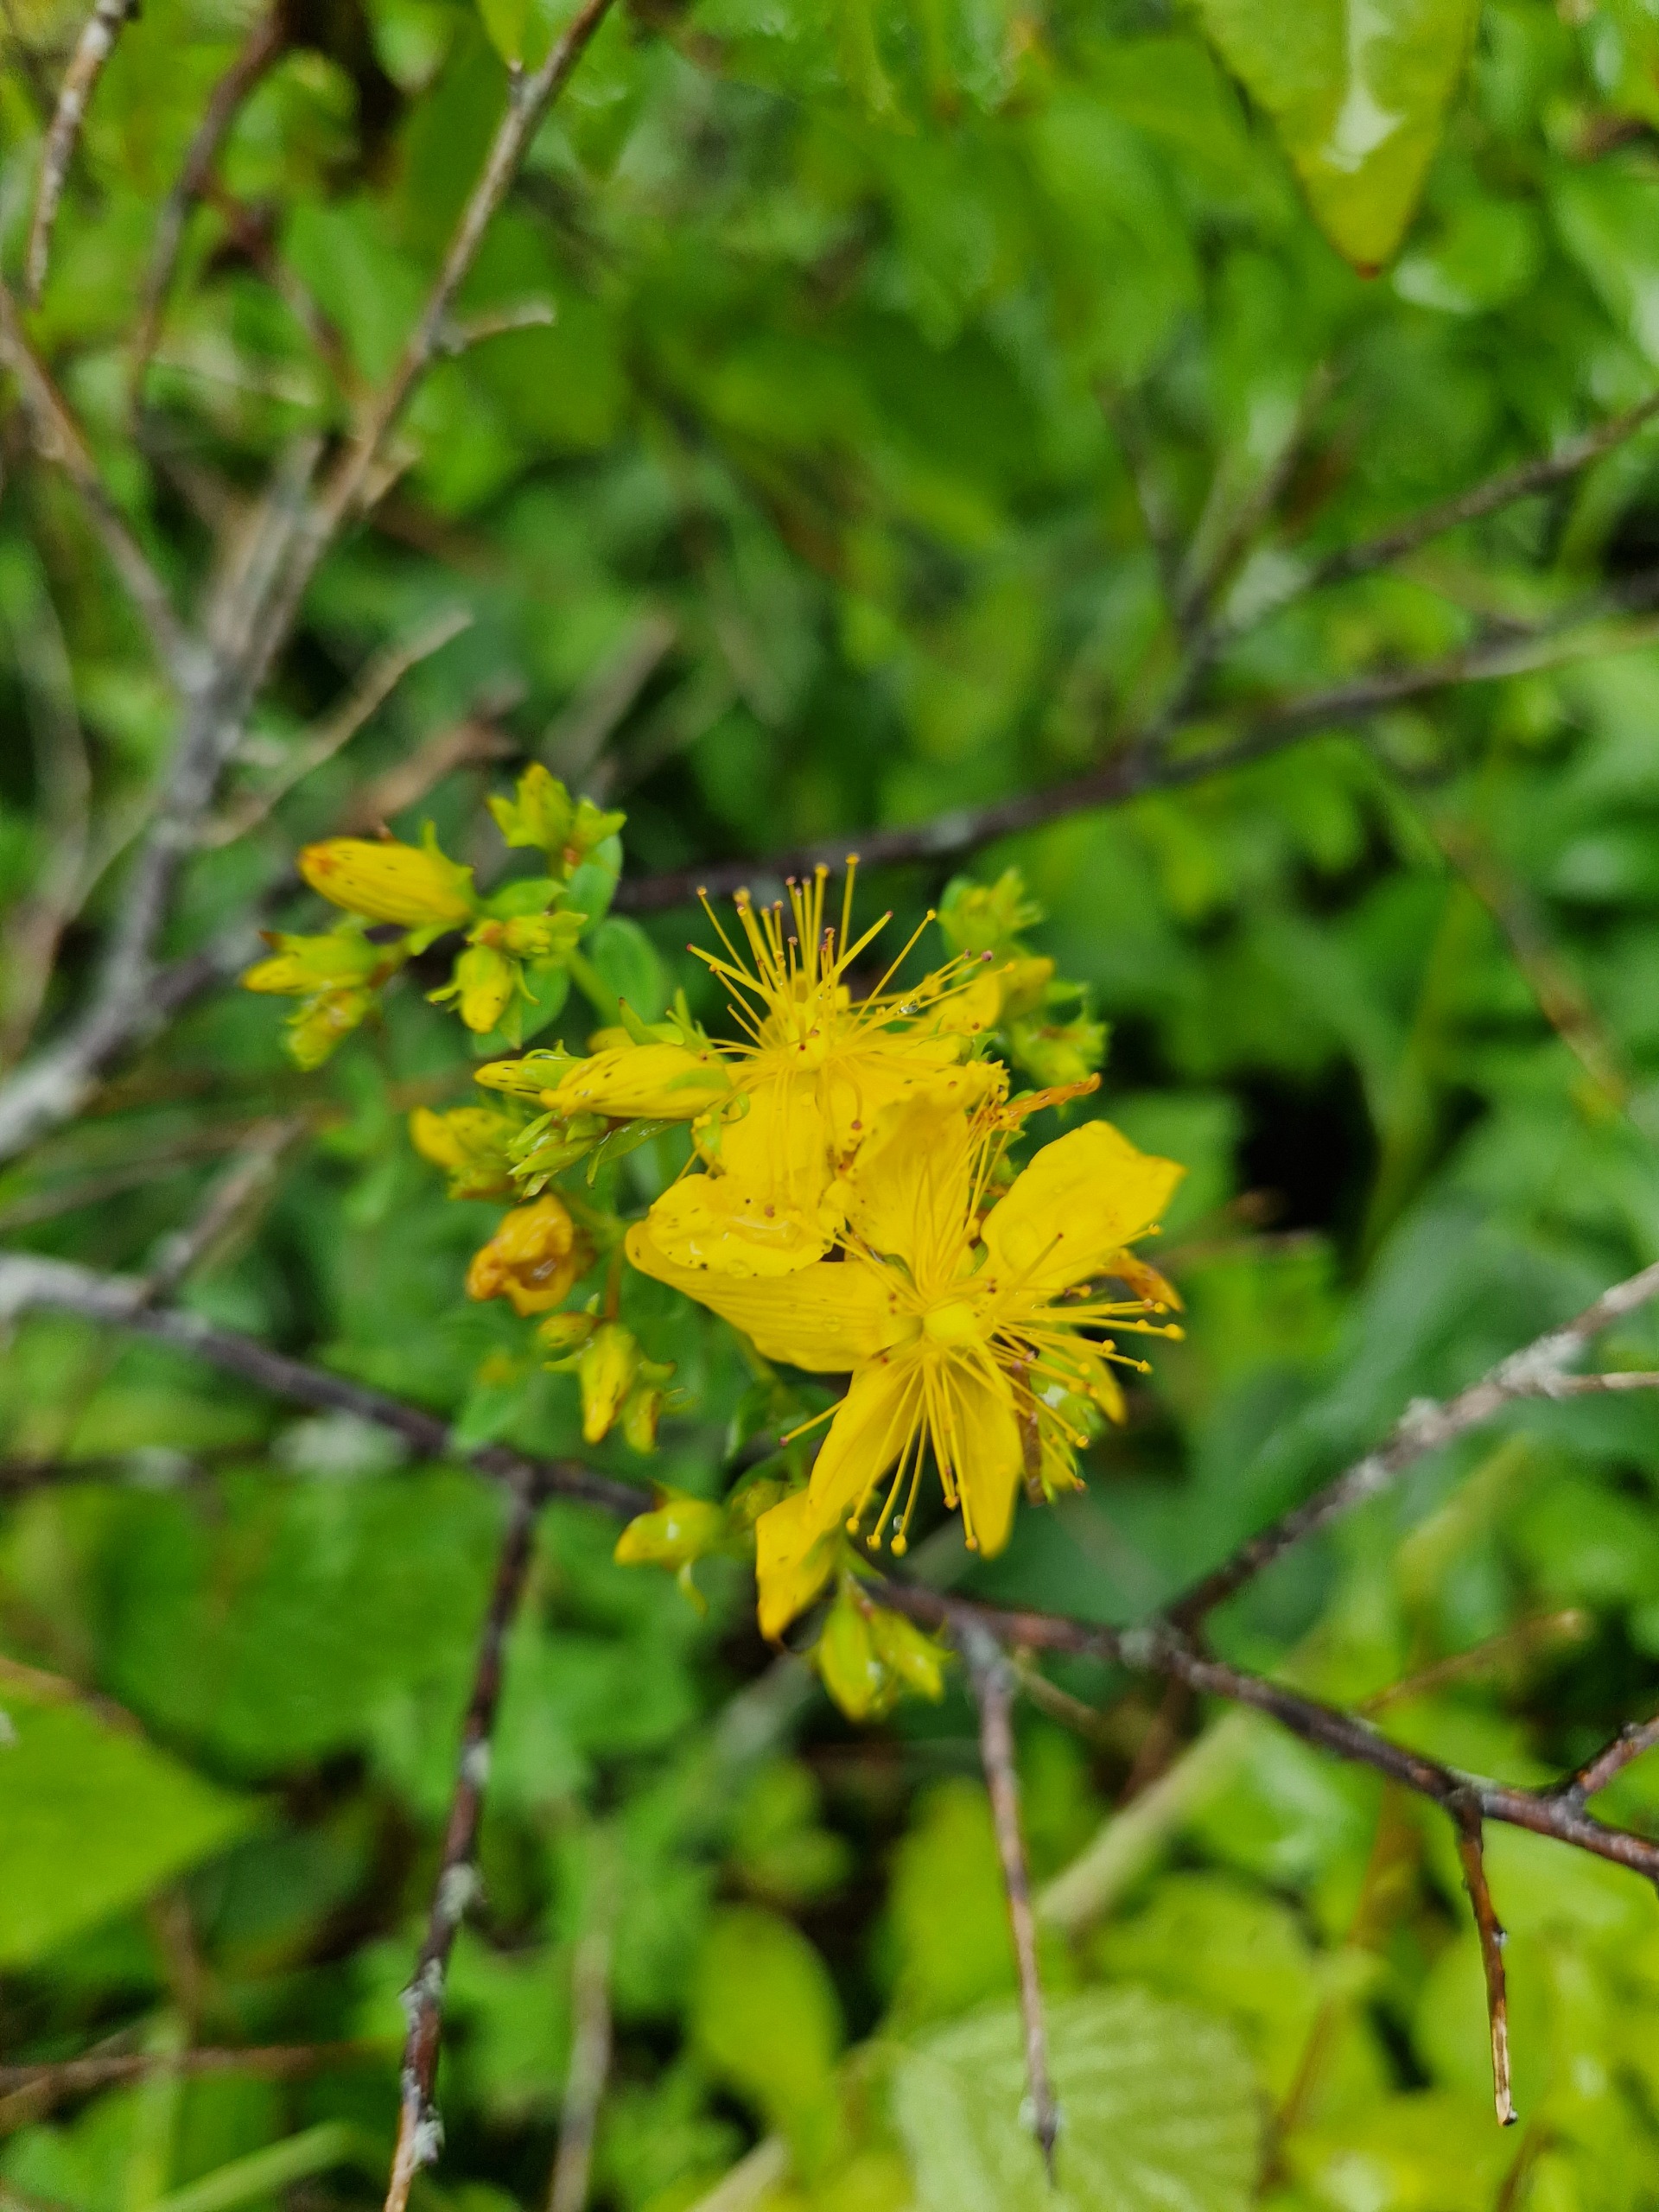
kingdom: Plantae
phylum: Tracheophyta
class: Magnoliopsida
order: Malpighiales
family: Hypericaceae
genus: Hypericum
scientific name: Hypericum perforatum
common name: Prikbladet perikon
